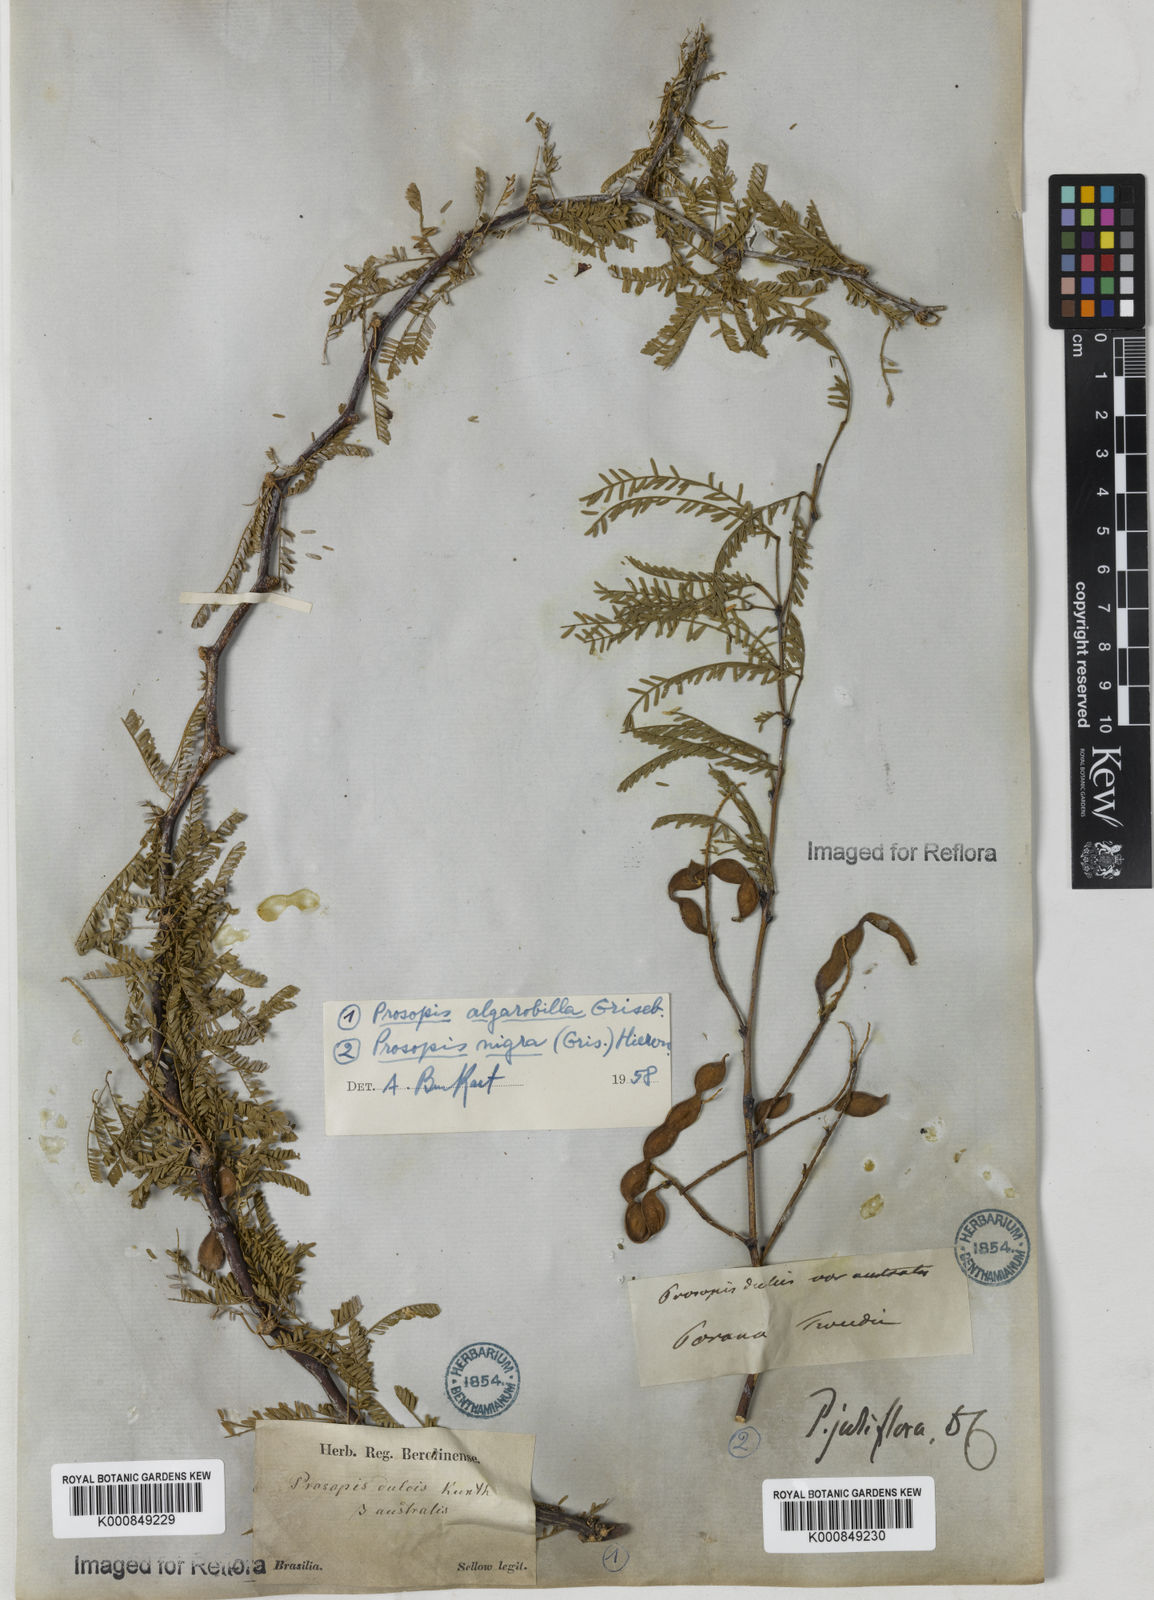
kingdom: Plantae
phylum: Tracheophyta
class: Magnoliopsida
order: Fabales
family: Fabaceae
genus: Prosopis
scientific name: Prosopis juliflora
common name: Mesquite
